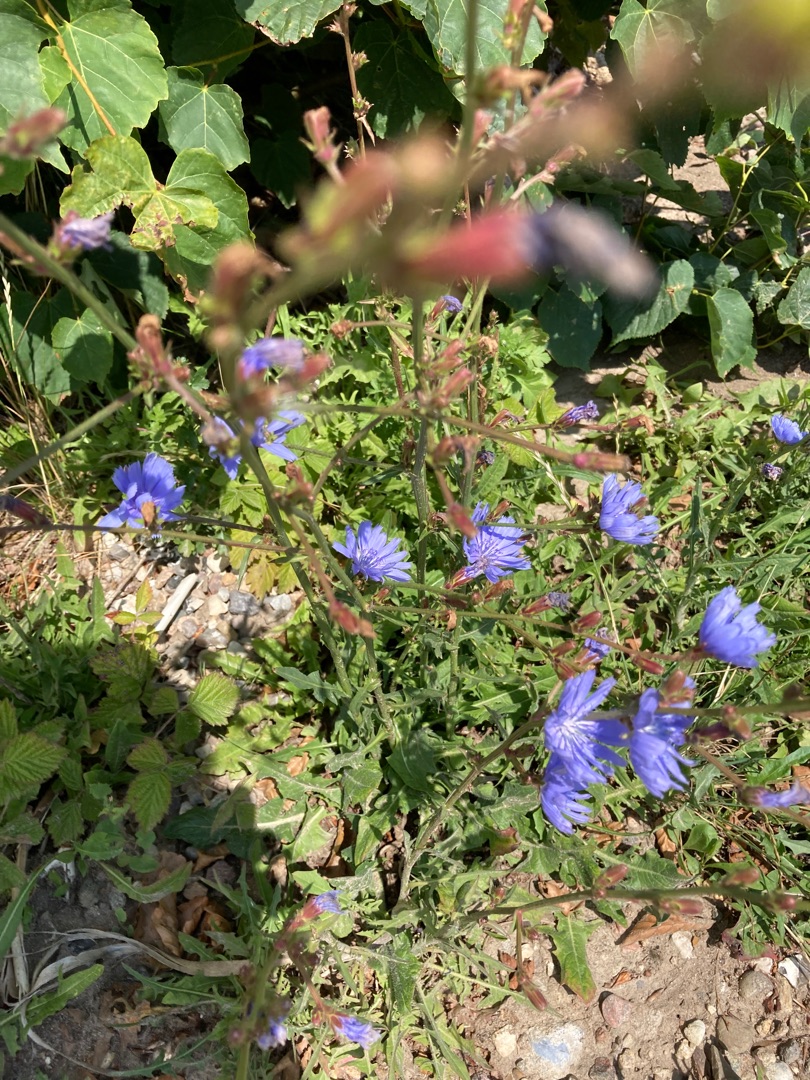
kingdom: Plantae
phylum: Tracheophyta
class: Magnoliopsida
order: Asterales
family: Asteraceae
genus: Cichorium
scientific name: Cichorium intybus
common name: Cikorie
